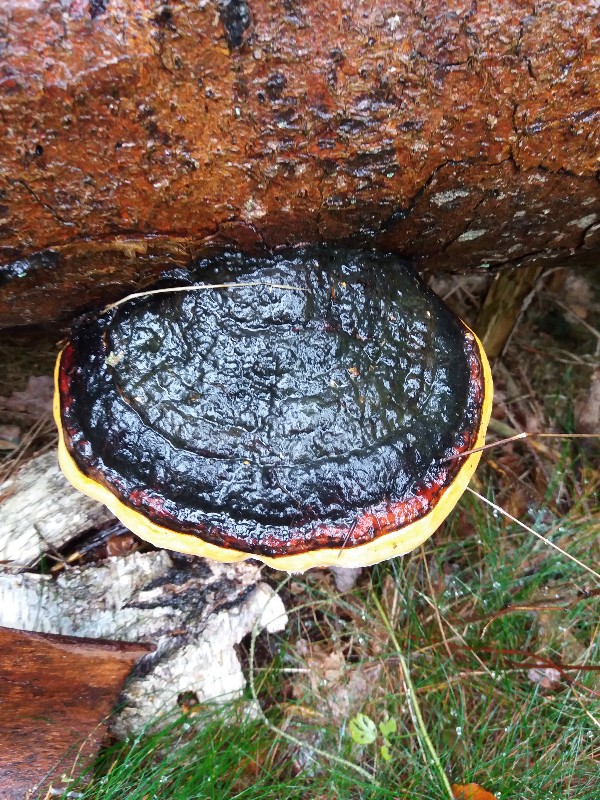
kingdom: Fungi
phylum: Basidiomycota
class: Agaricomycetes
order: Polyporales
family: Fomitopsidaceae
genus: Fomitopsis
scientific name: Fomitopsis pinicola
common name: randbæltet hovporesvamp
